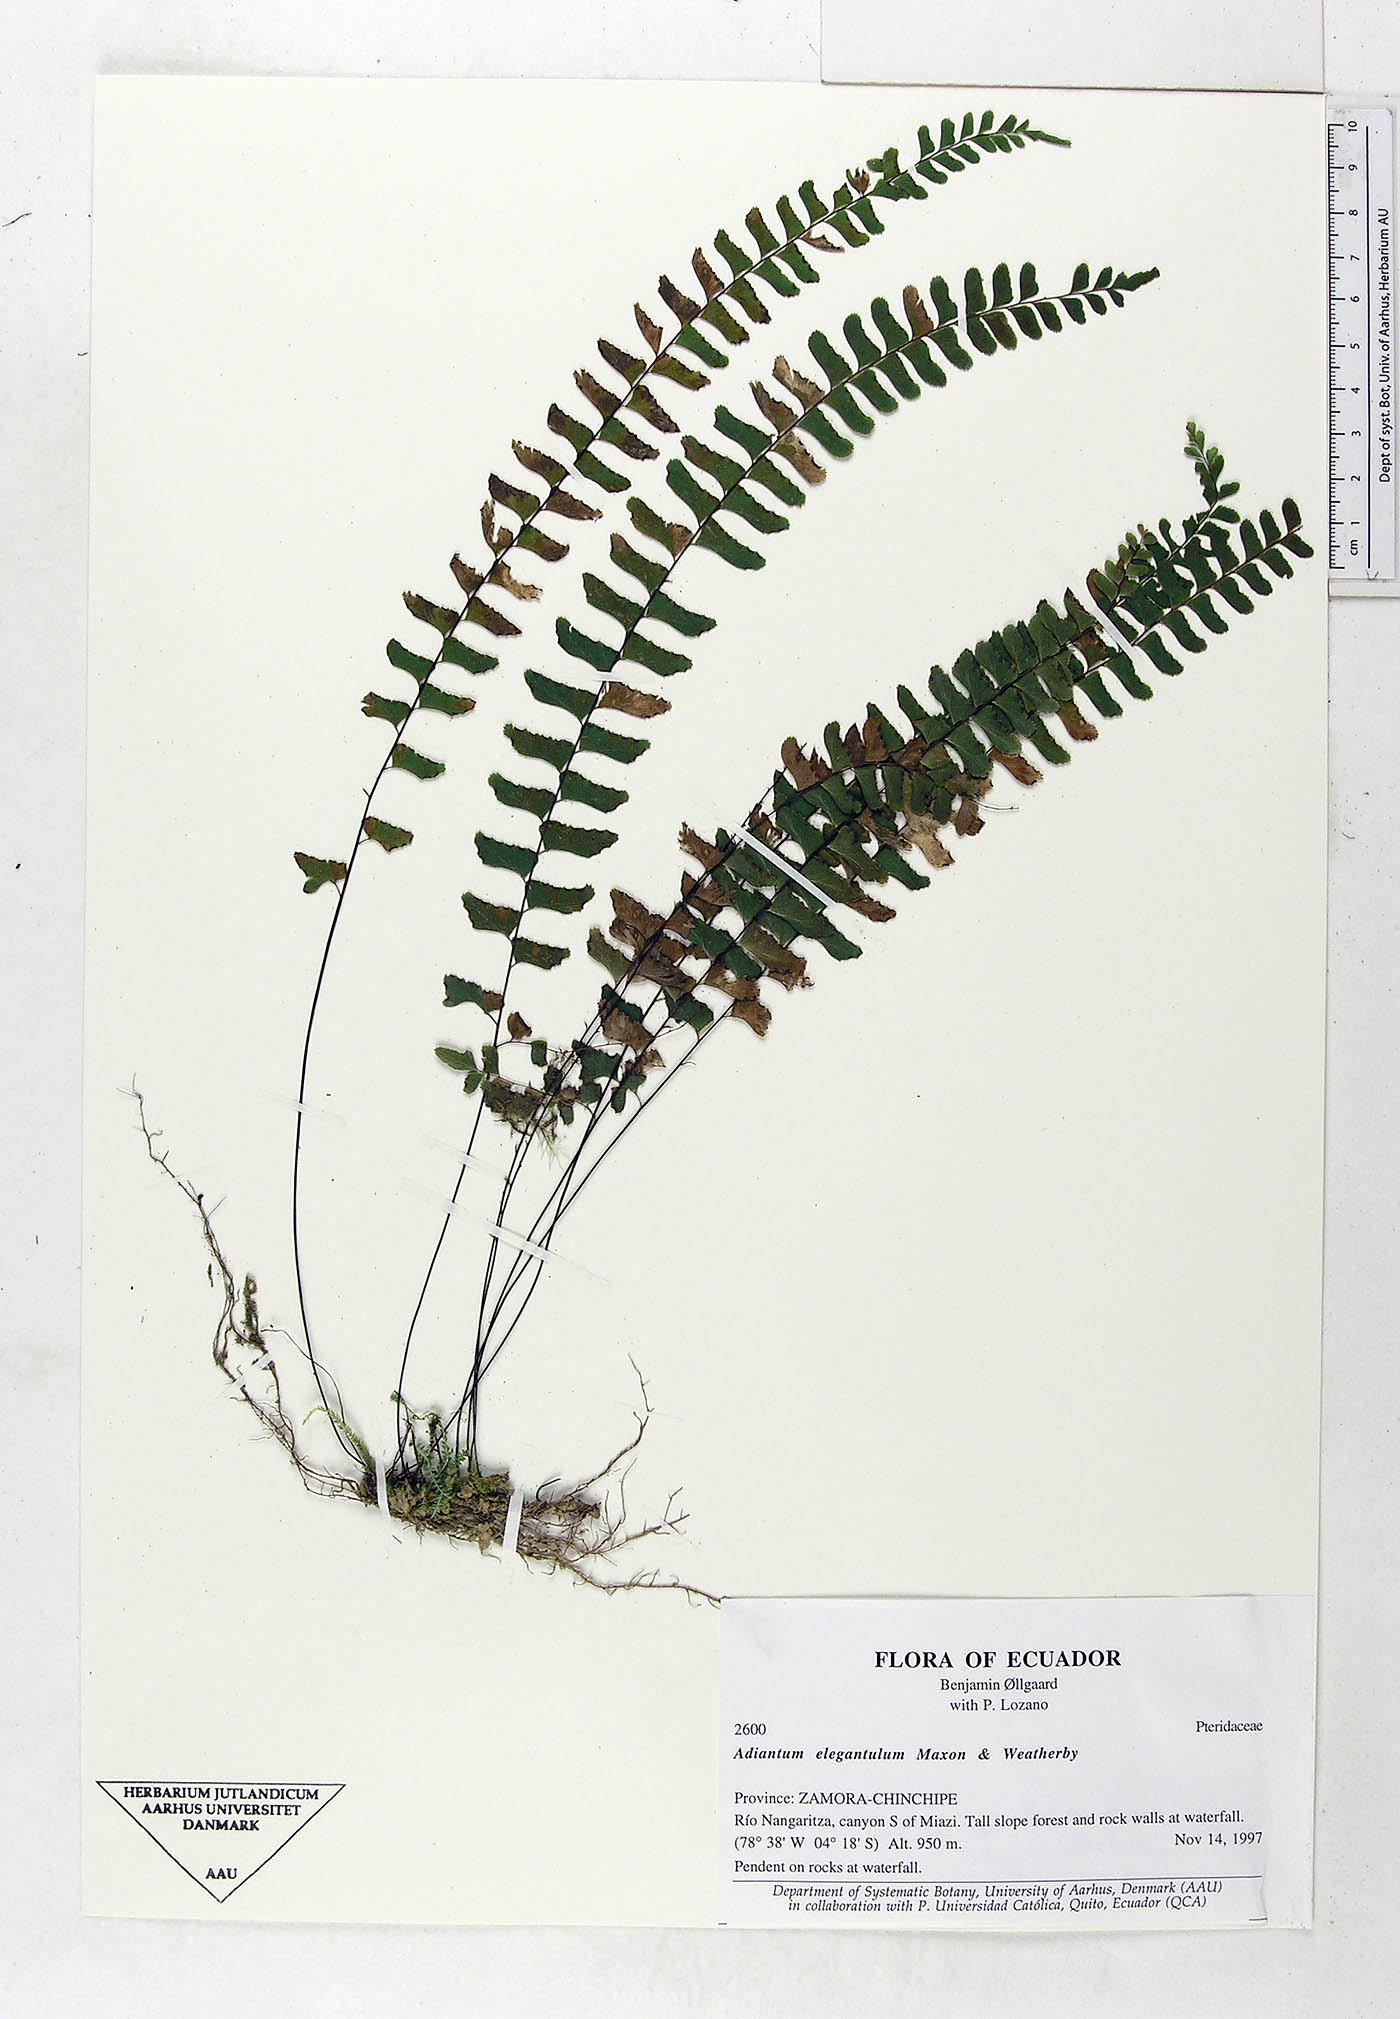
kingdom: Plantae
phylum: Tracheophyta
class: Polypodiopsida
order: Polypodiales
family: Pteridaceae
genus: Adiantum
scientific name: Adiantum elegantulum
